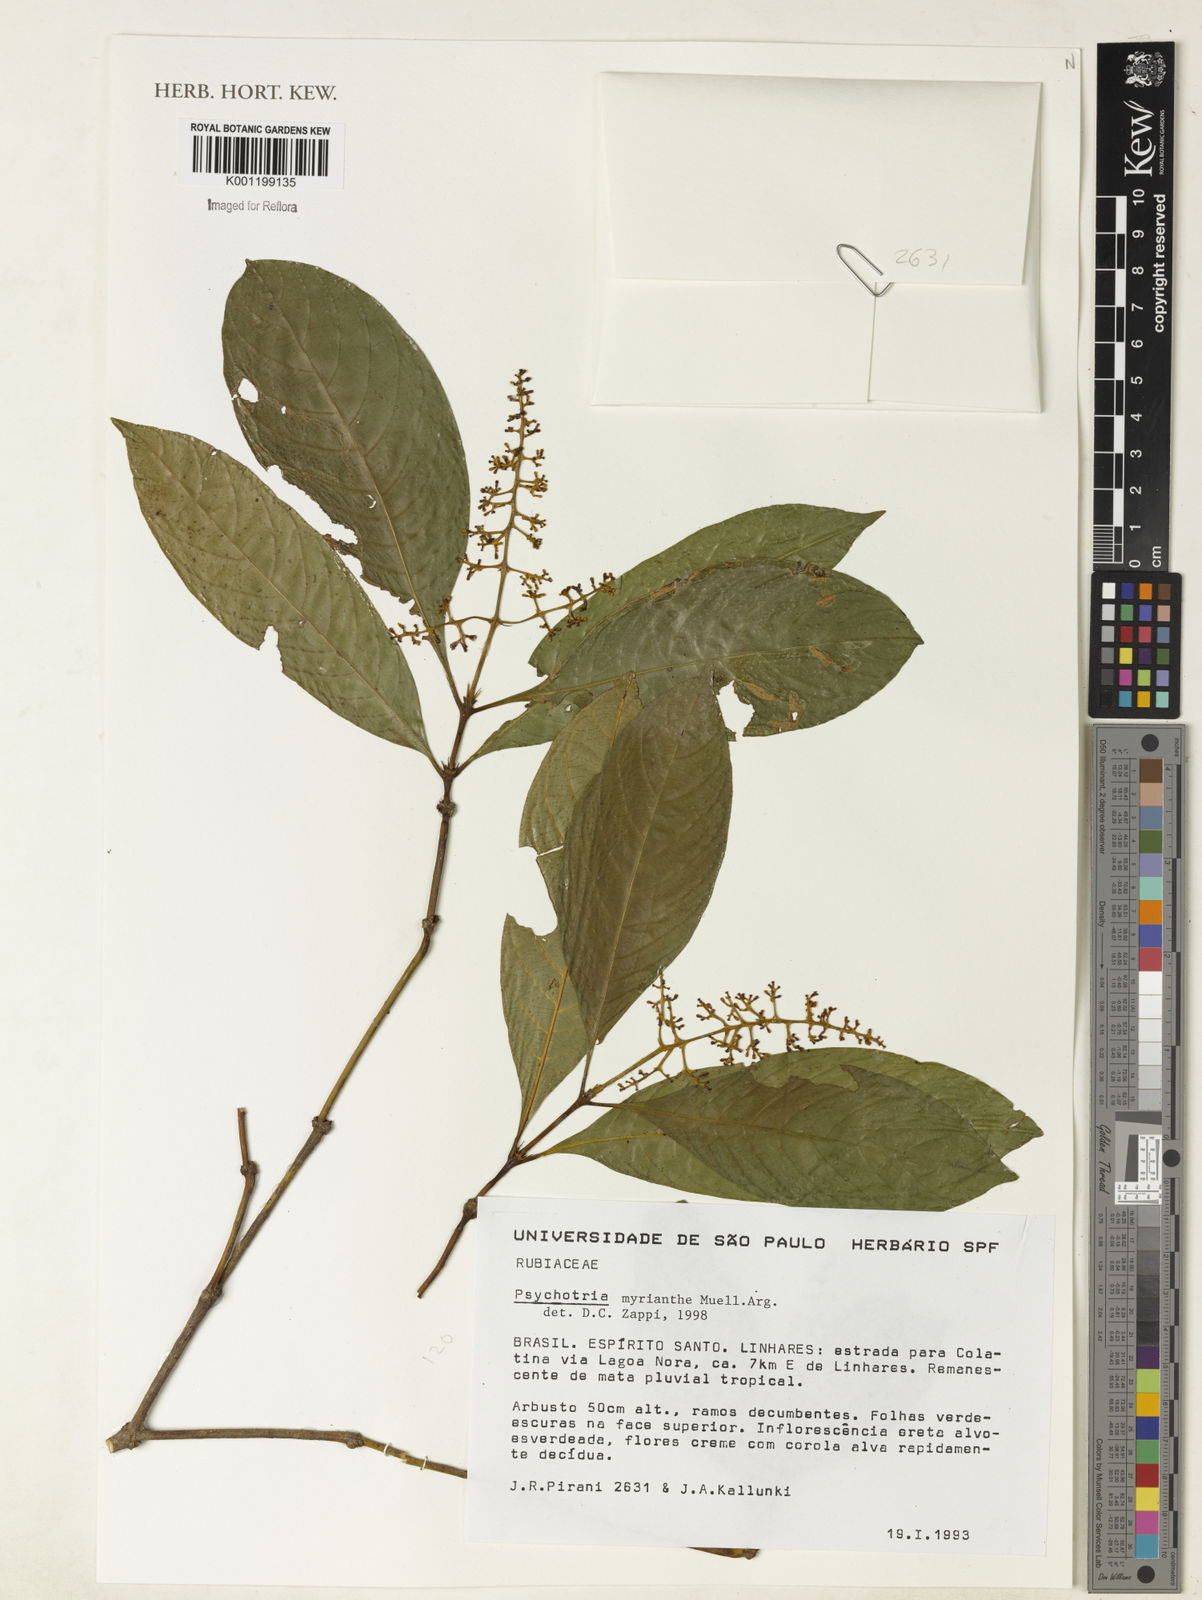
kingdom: Plantae
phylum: Tracheophyta
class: Magnoliopsida
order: Gentianales
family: Rubiaceae
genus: Psychotria
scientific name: Psychotria
